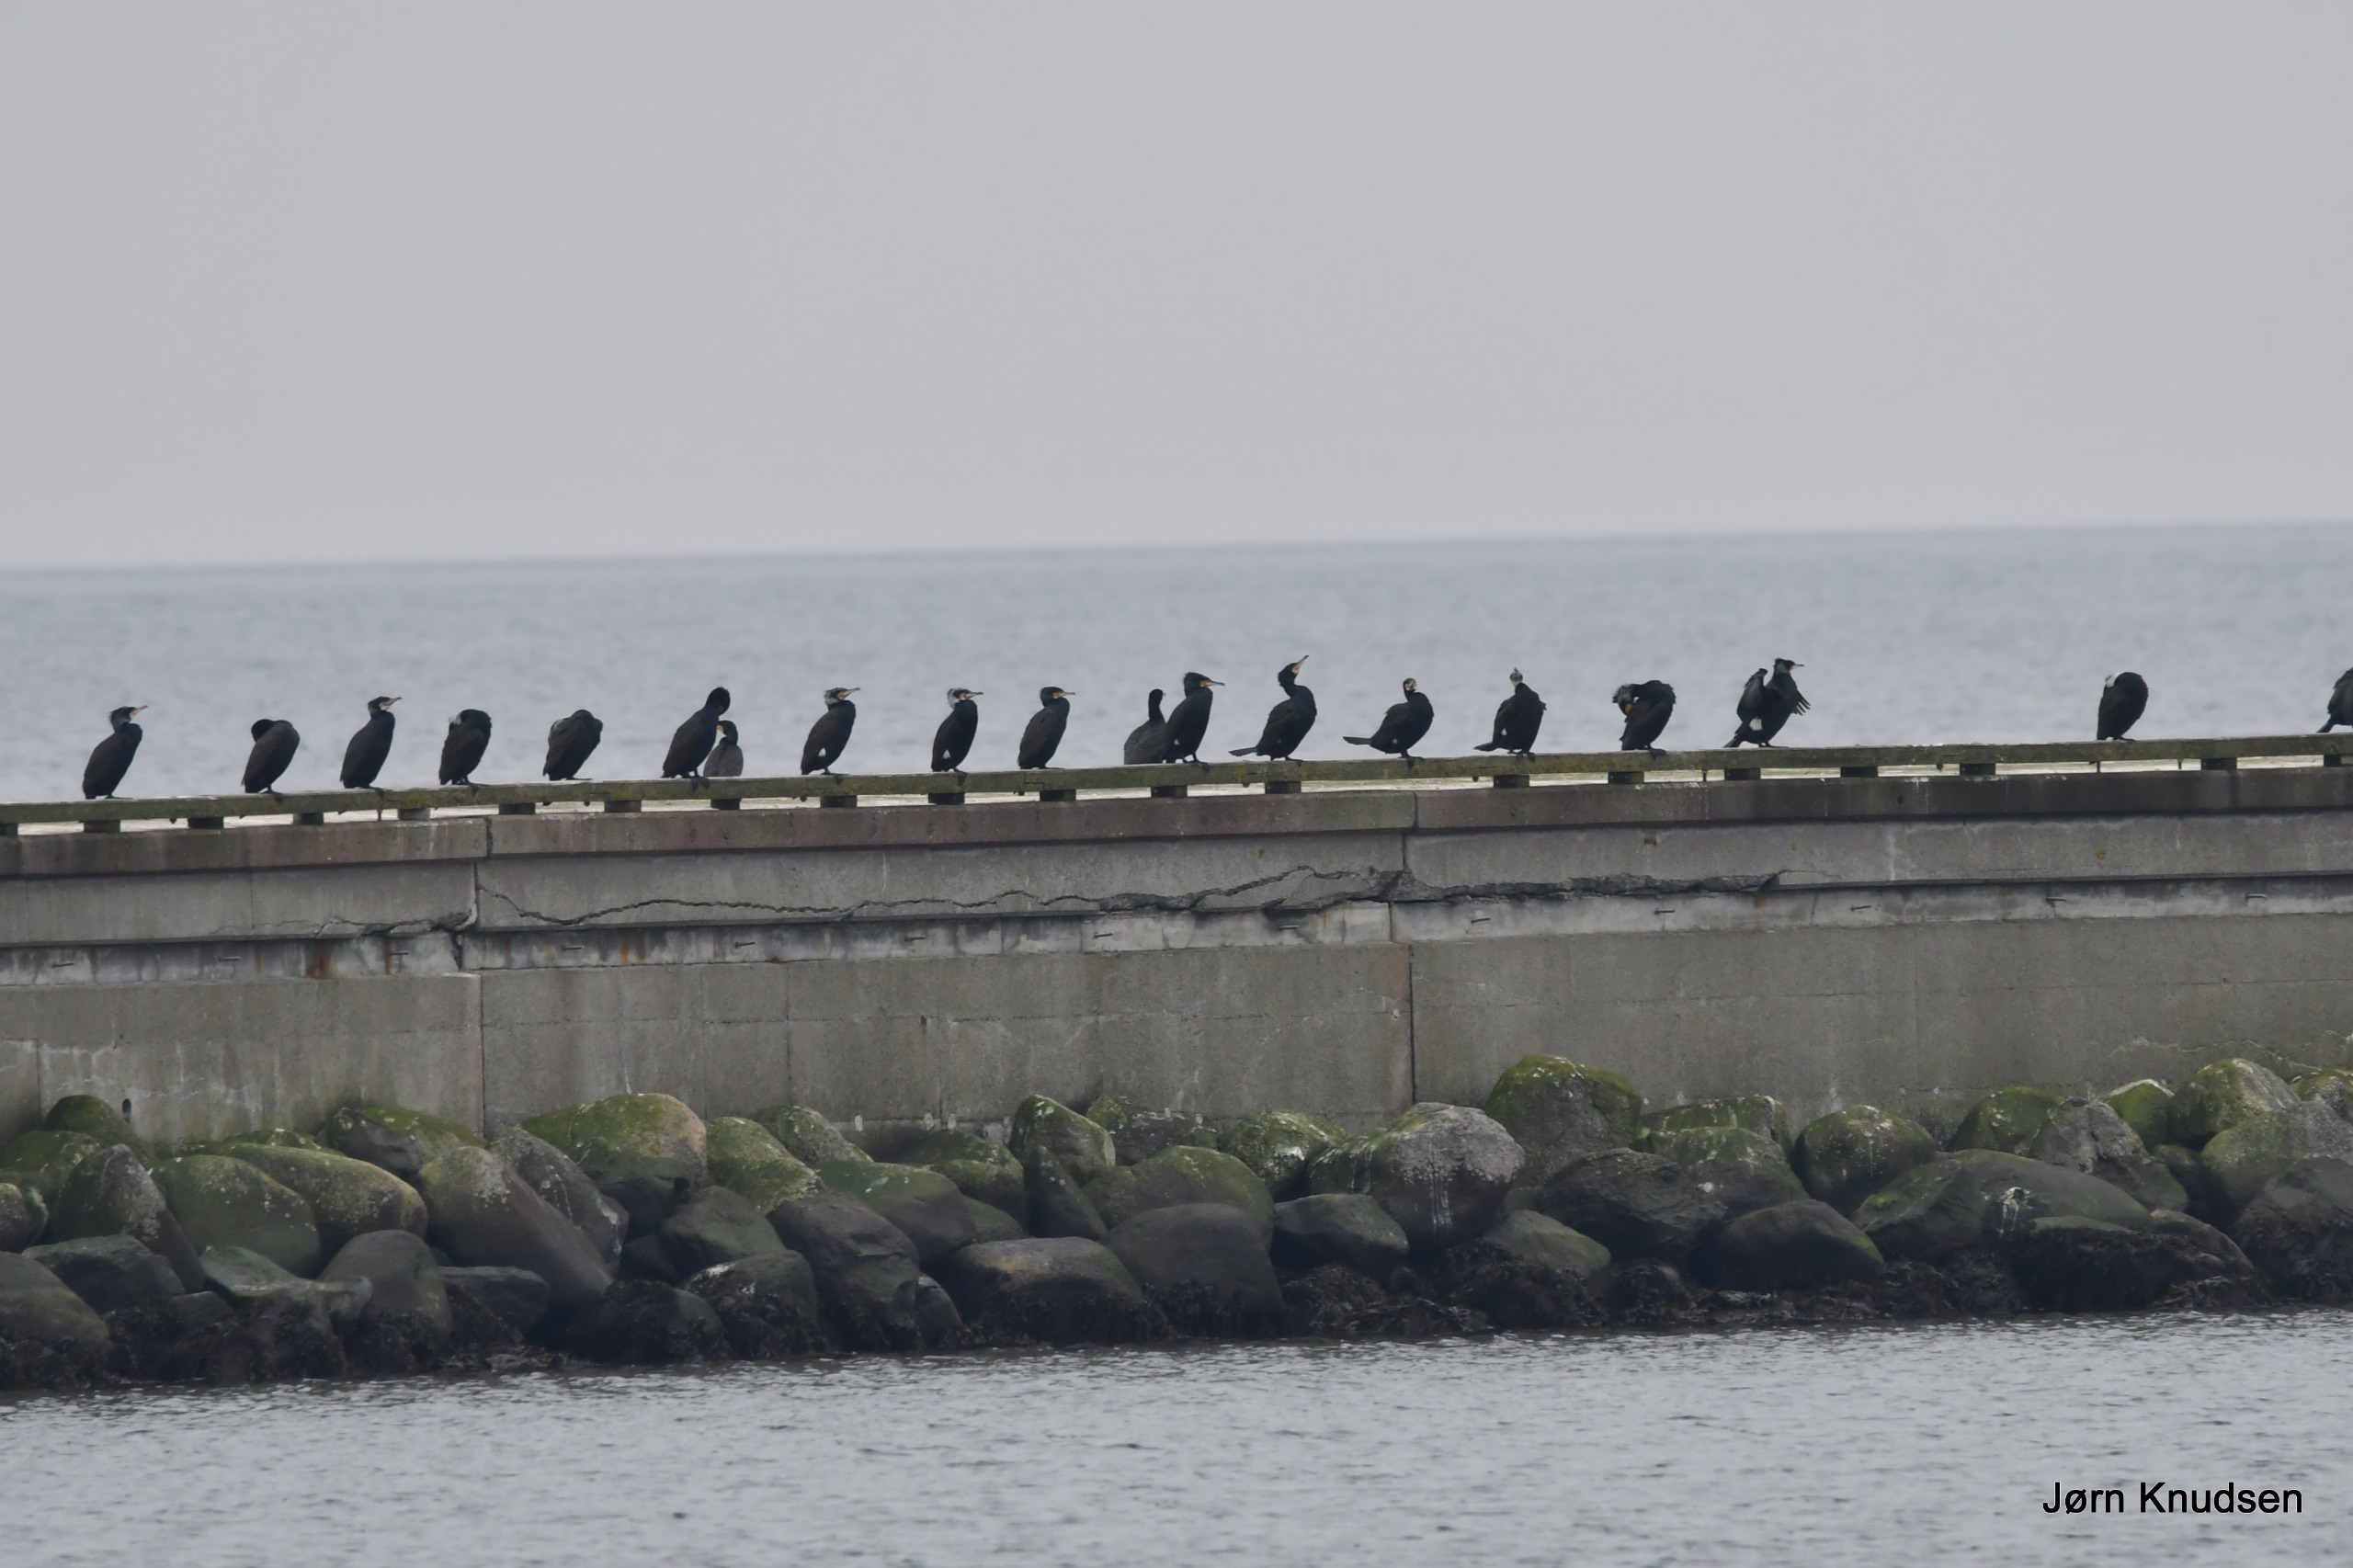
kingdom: Animalia
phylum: Chordata
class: Aves
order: Suliformes
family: Phalacrocoracidae
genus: Phalacrocorax
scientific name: Phalacrocorax carbo
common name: Skarv
